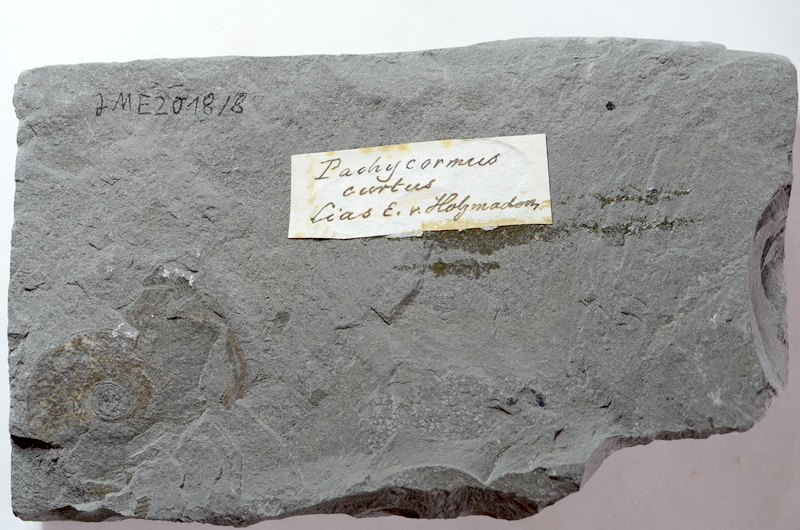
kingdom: Animalia
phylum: Chordata
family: Pachycormidae
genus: Pachycormus
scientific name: Pachycormus macropterus
